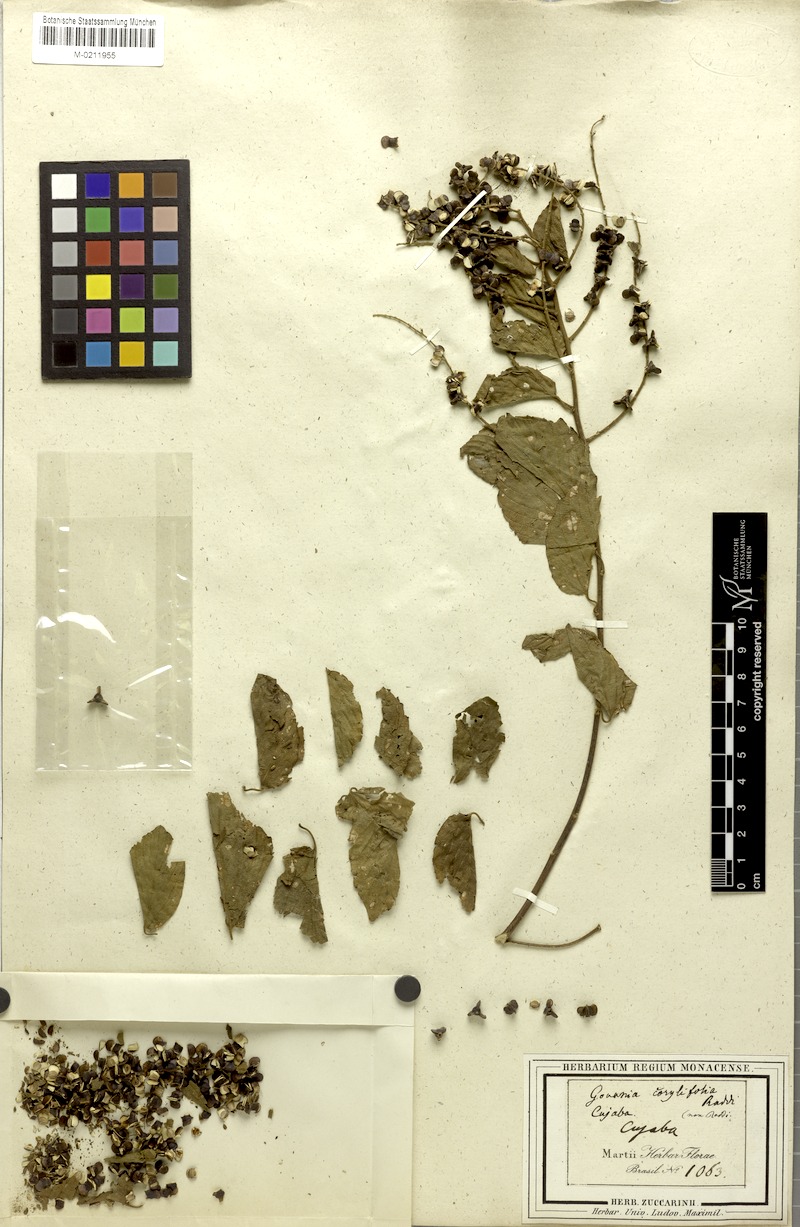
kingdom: Plantae
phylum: Tracheophyta
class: Magnoliopsida
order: Rosales
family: Rhamnaceae
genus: Gouania
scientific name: Gouania corylifolia
